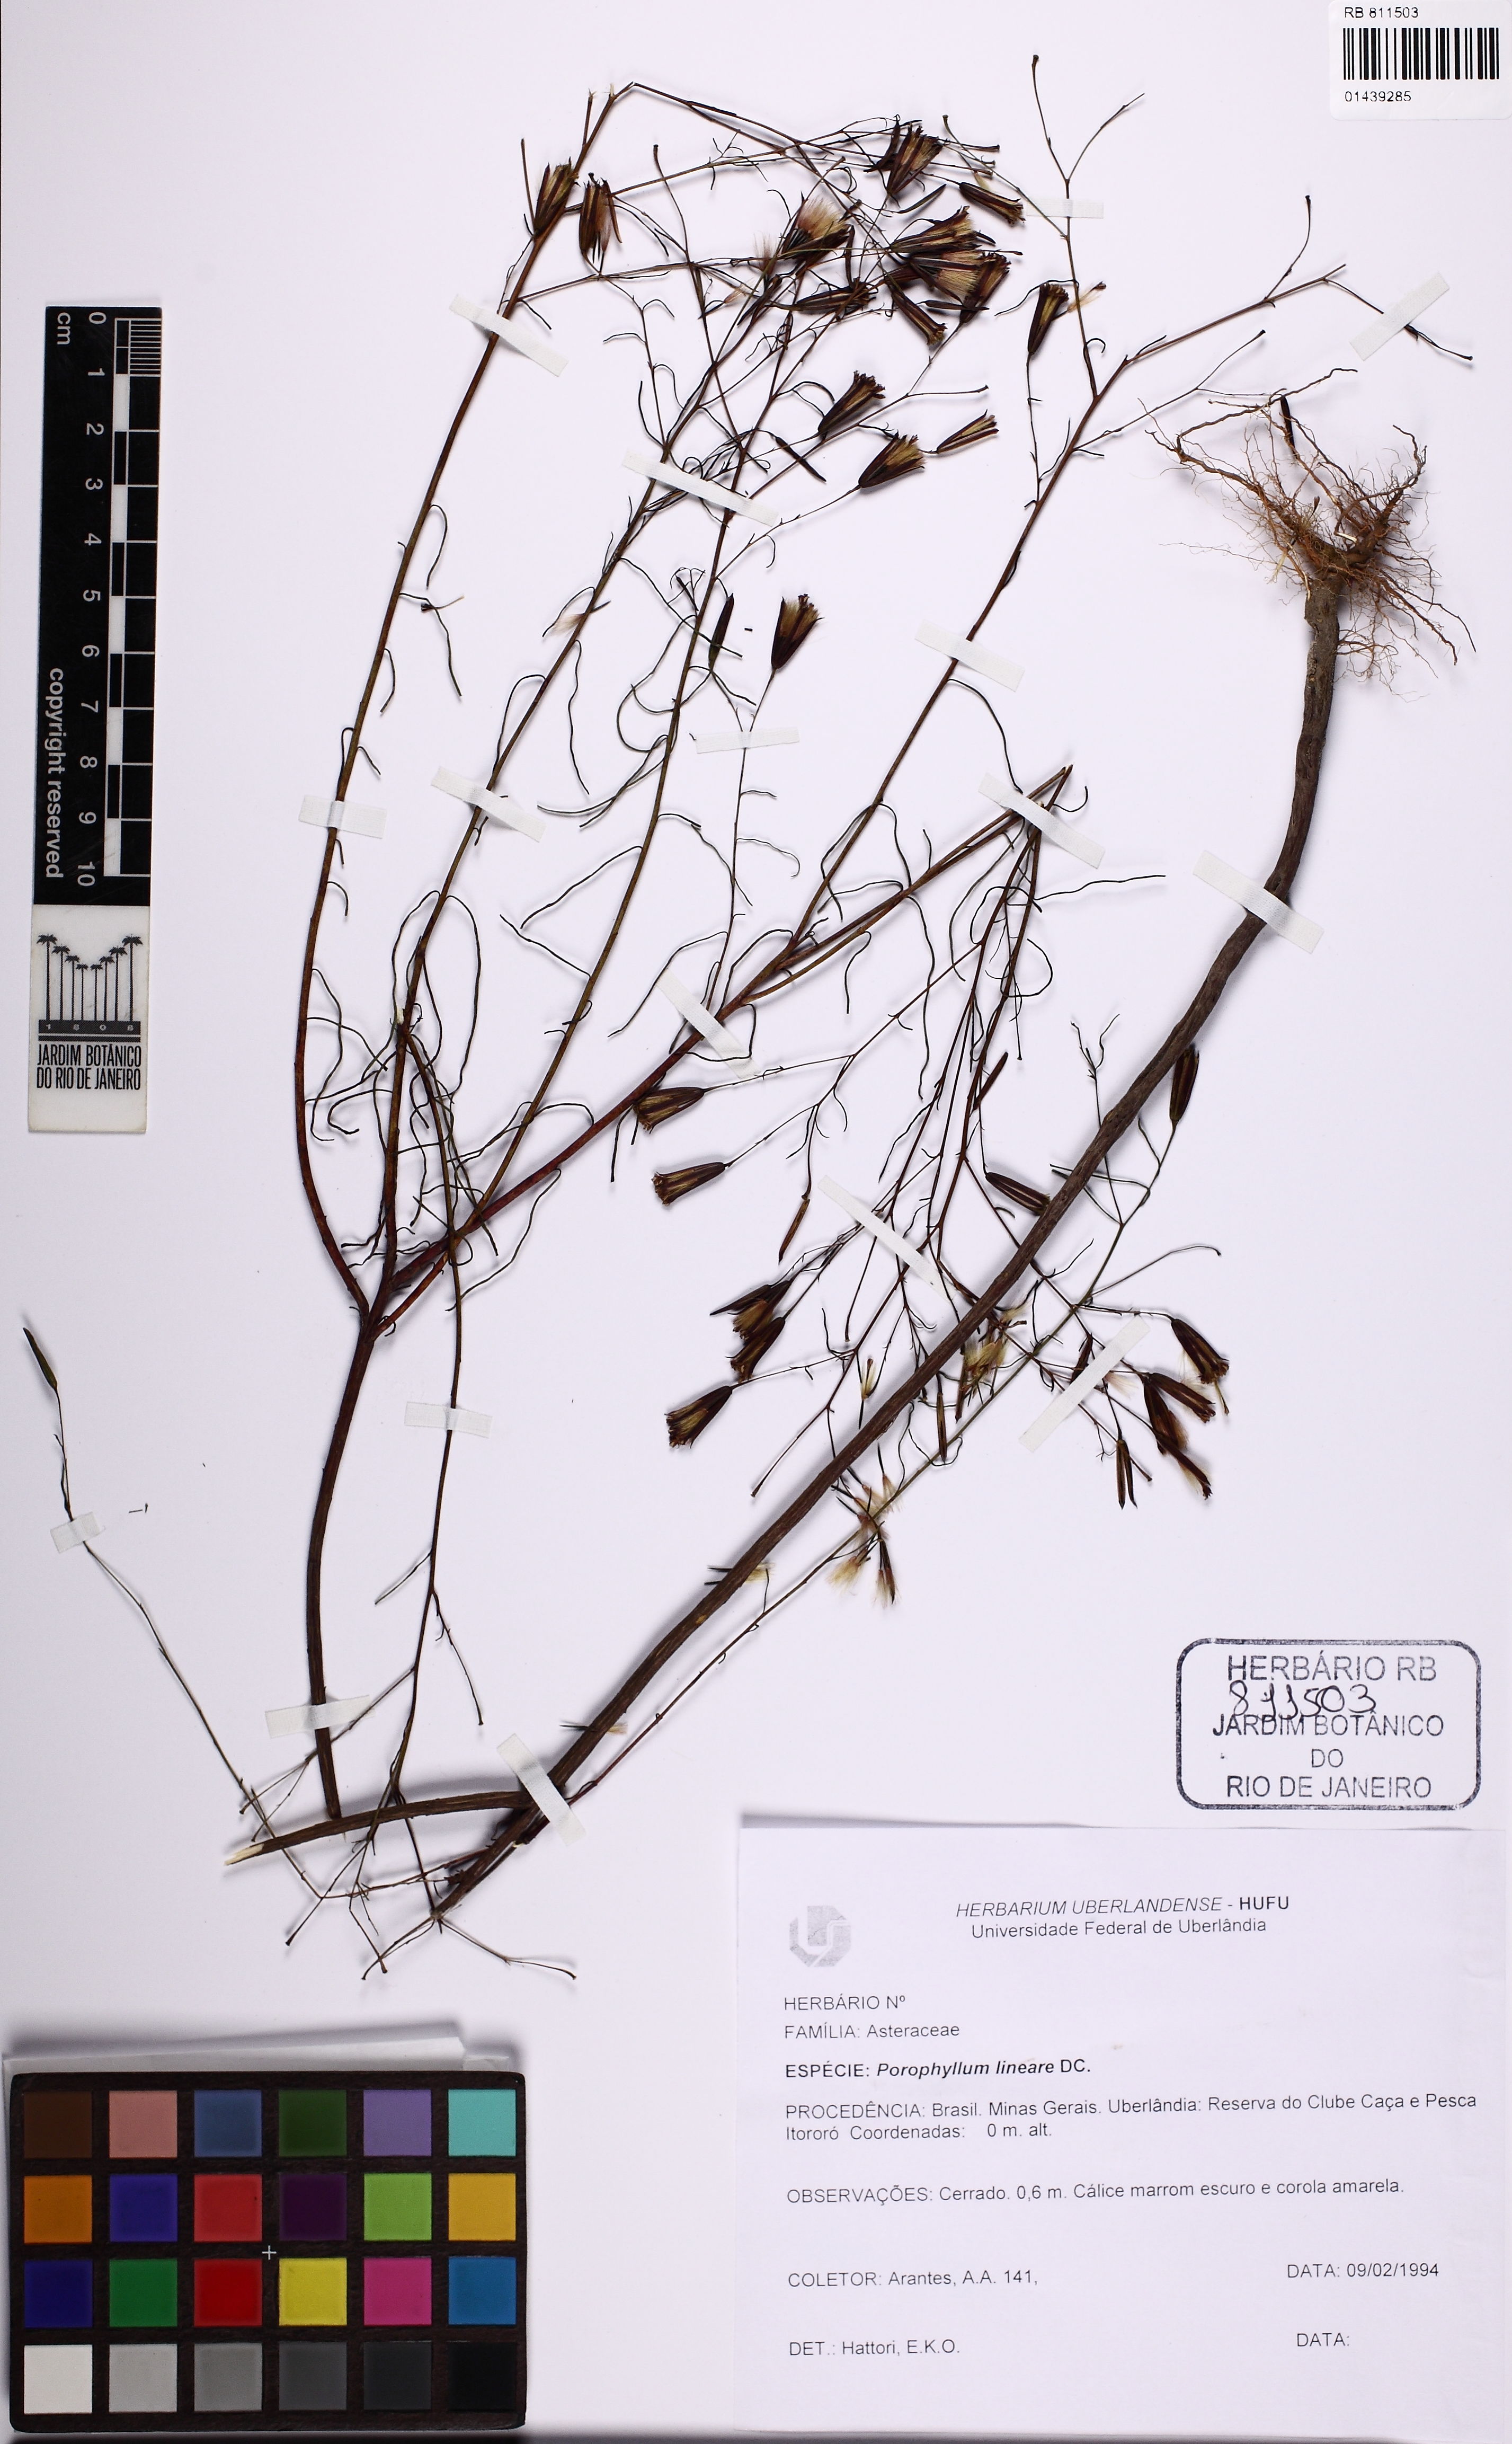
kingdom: Plantae
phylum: Tracheophyta
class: Magnoliopsida
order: Asterales
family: Asteraceae
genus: Porophyllum
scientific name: Porophyllum obscurum
